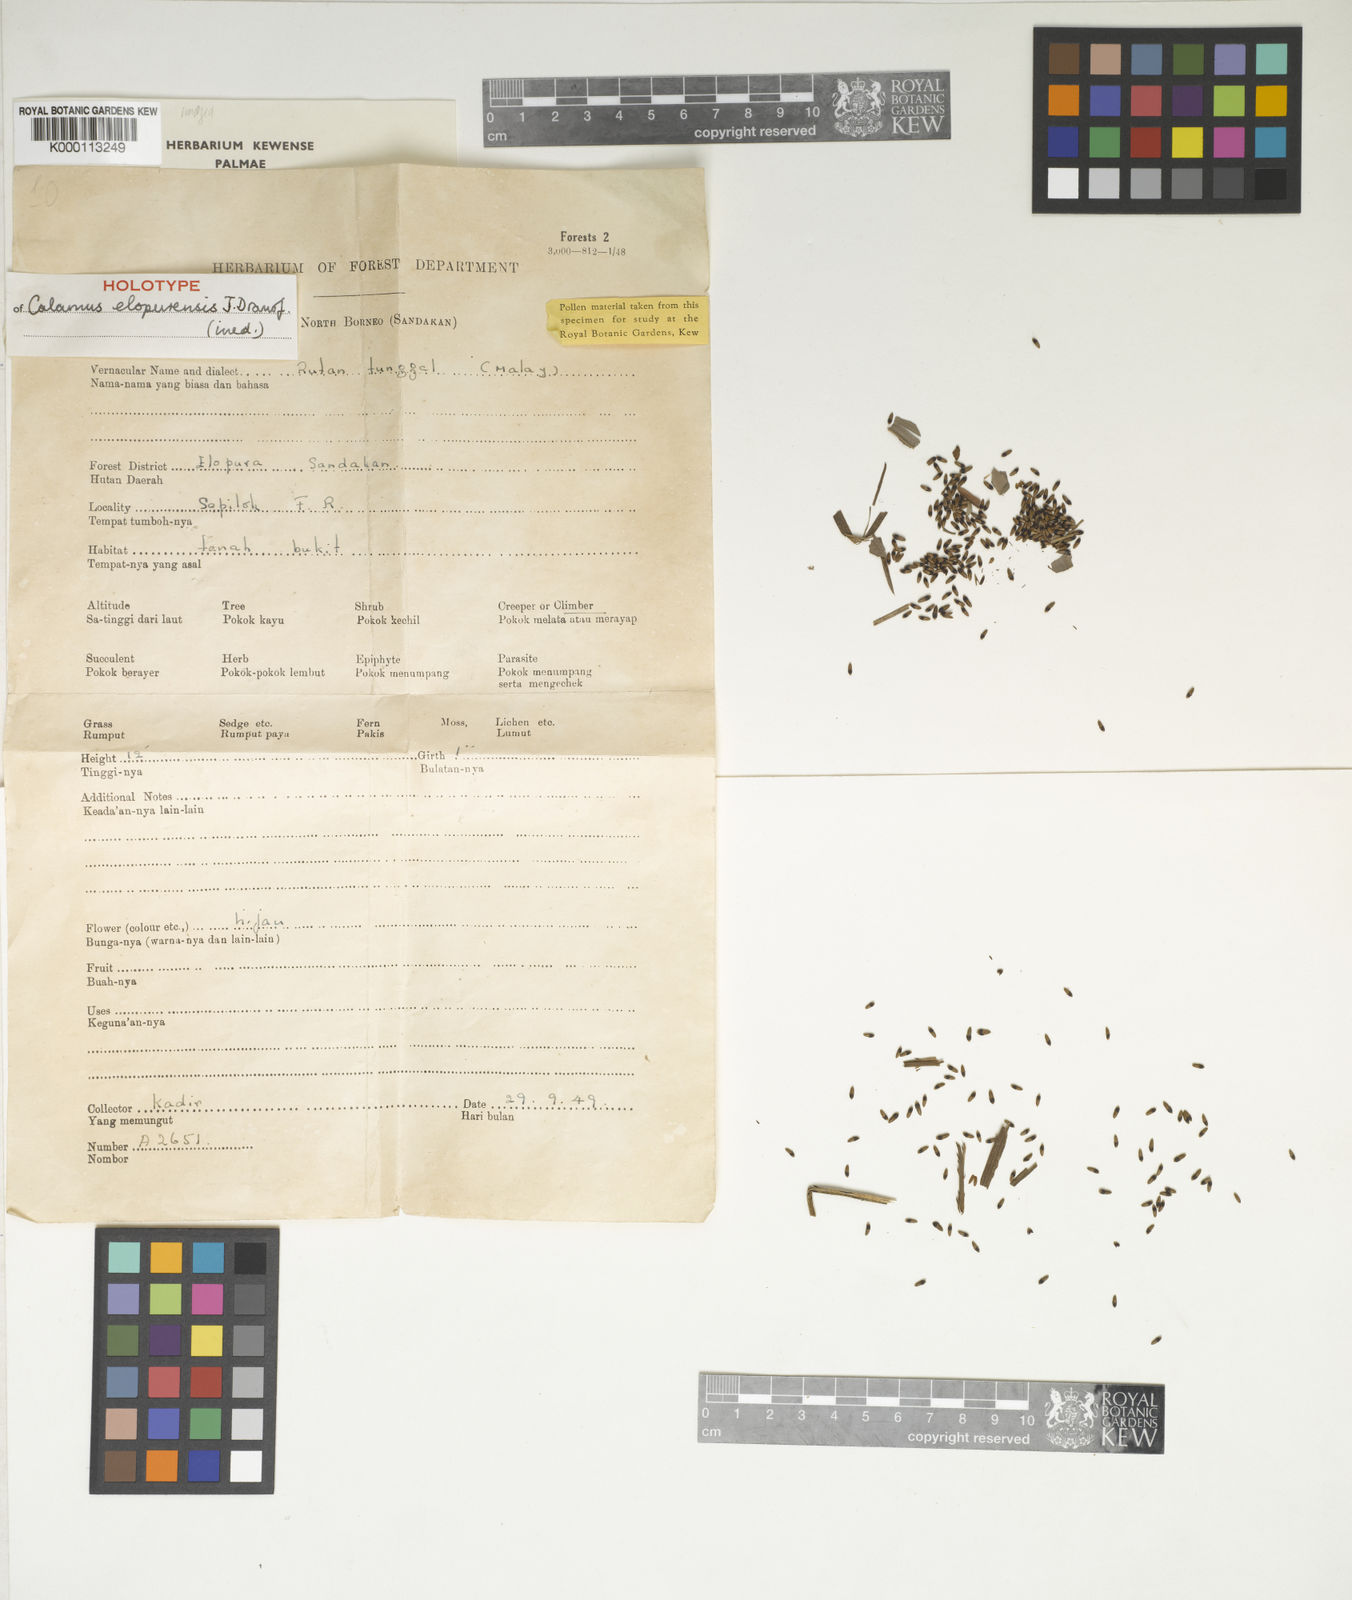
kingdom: Plantae
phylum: Tracheophyta
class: Liliopsida
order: Arecales
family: Arecaceae
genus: Calamus
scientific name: Calamus javensis
